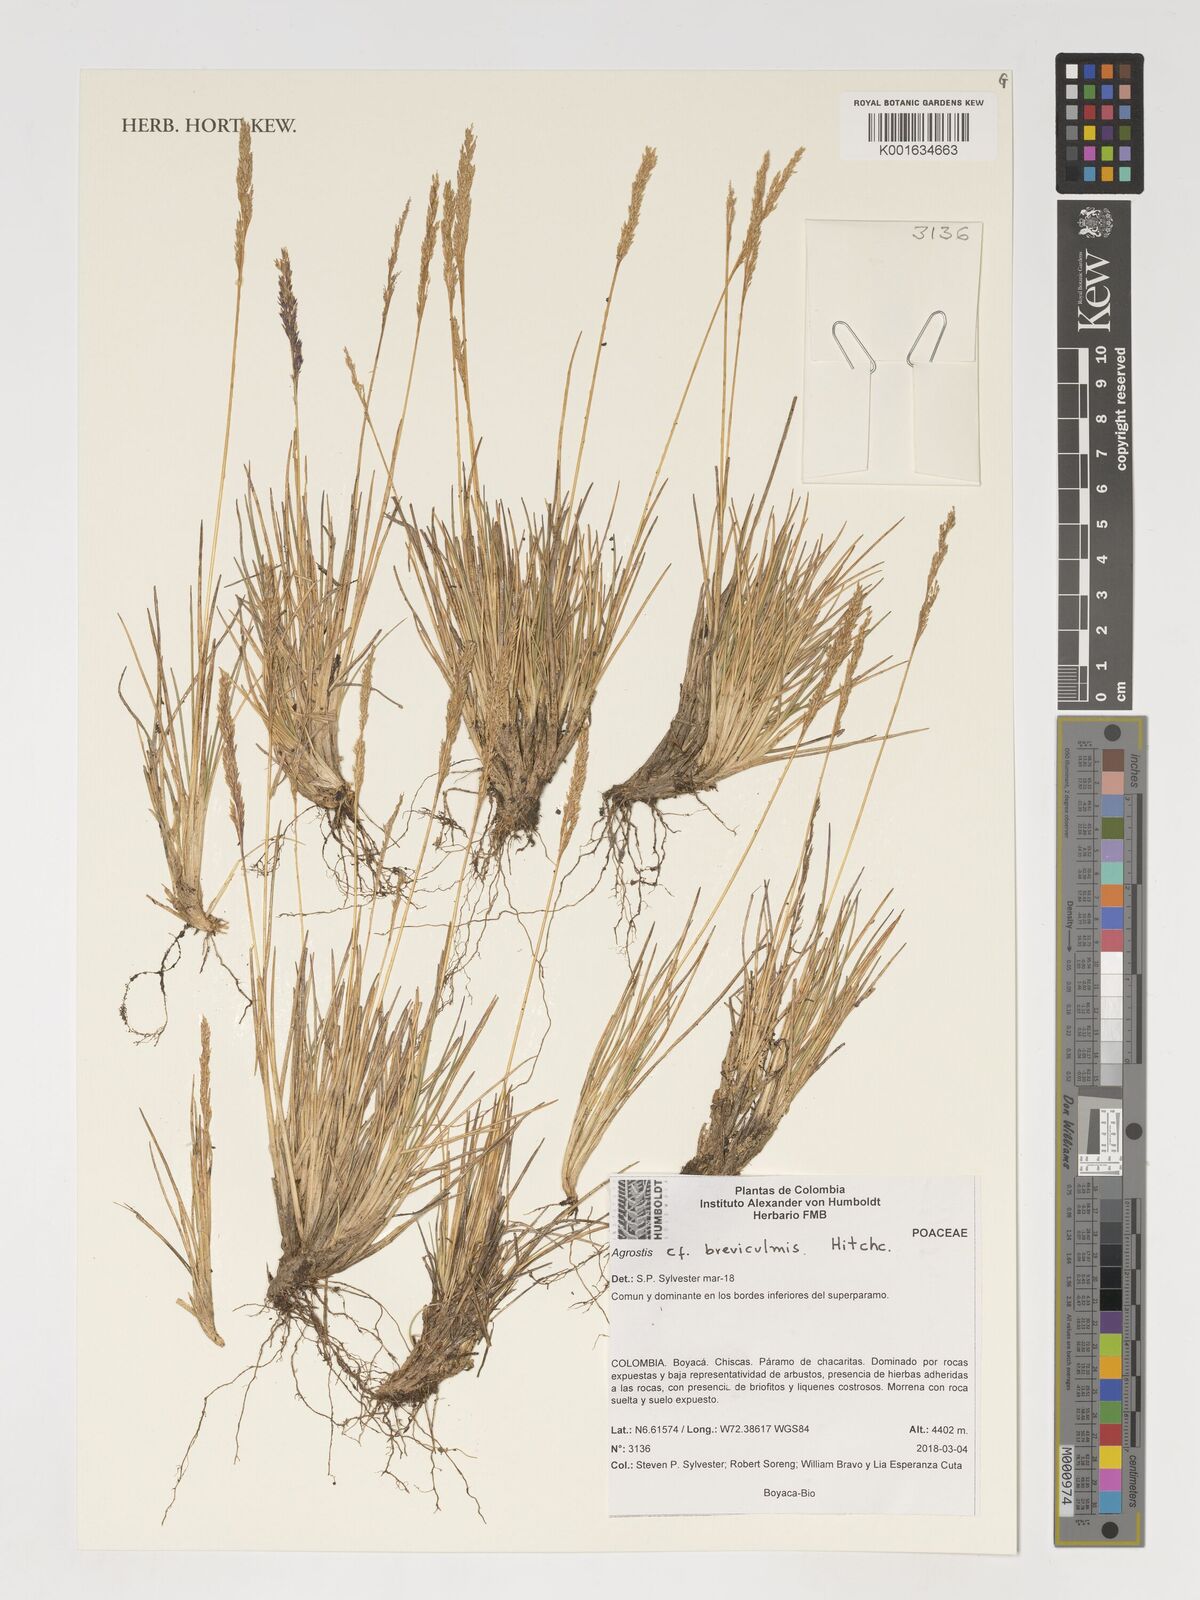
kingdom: Plantae
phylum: Tracheophyta
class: Liliopsida
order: Poales
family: Poaceae
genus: Agrostis
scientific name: Agrostis breviculmis
